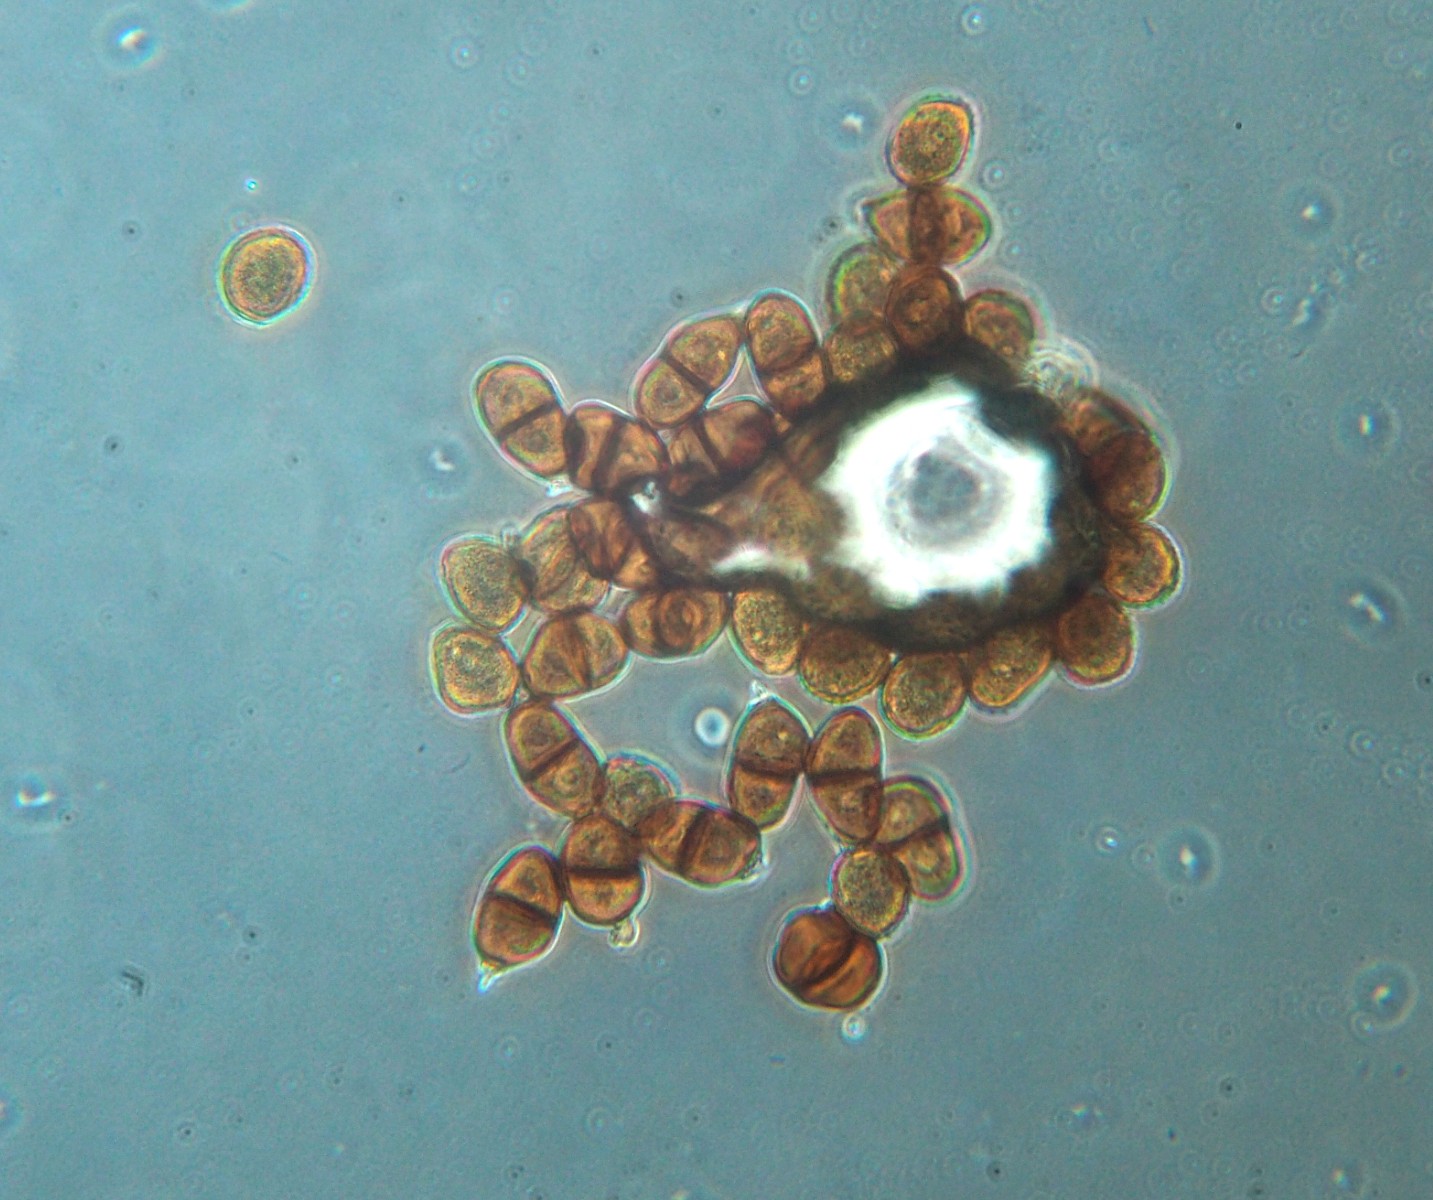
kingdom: Fungi
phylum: Basidiomycota
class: Pucciniomycetes
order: Pucciniales
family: Pucciniaceae
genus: Puccinia
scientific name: Puccinia lapsanae
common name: Nipplewort rust
